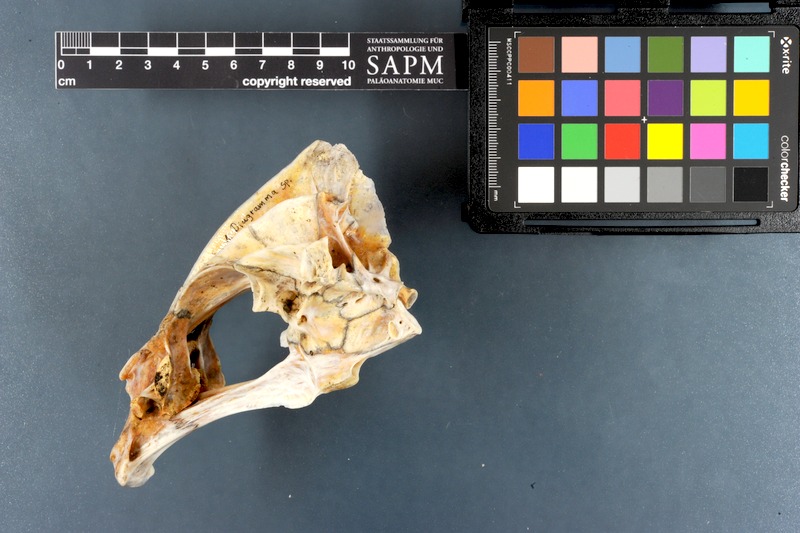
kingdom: Animalia
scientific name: Animalia
